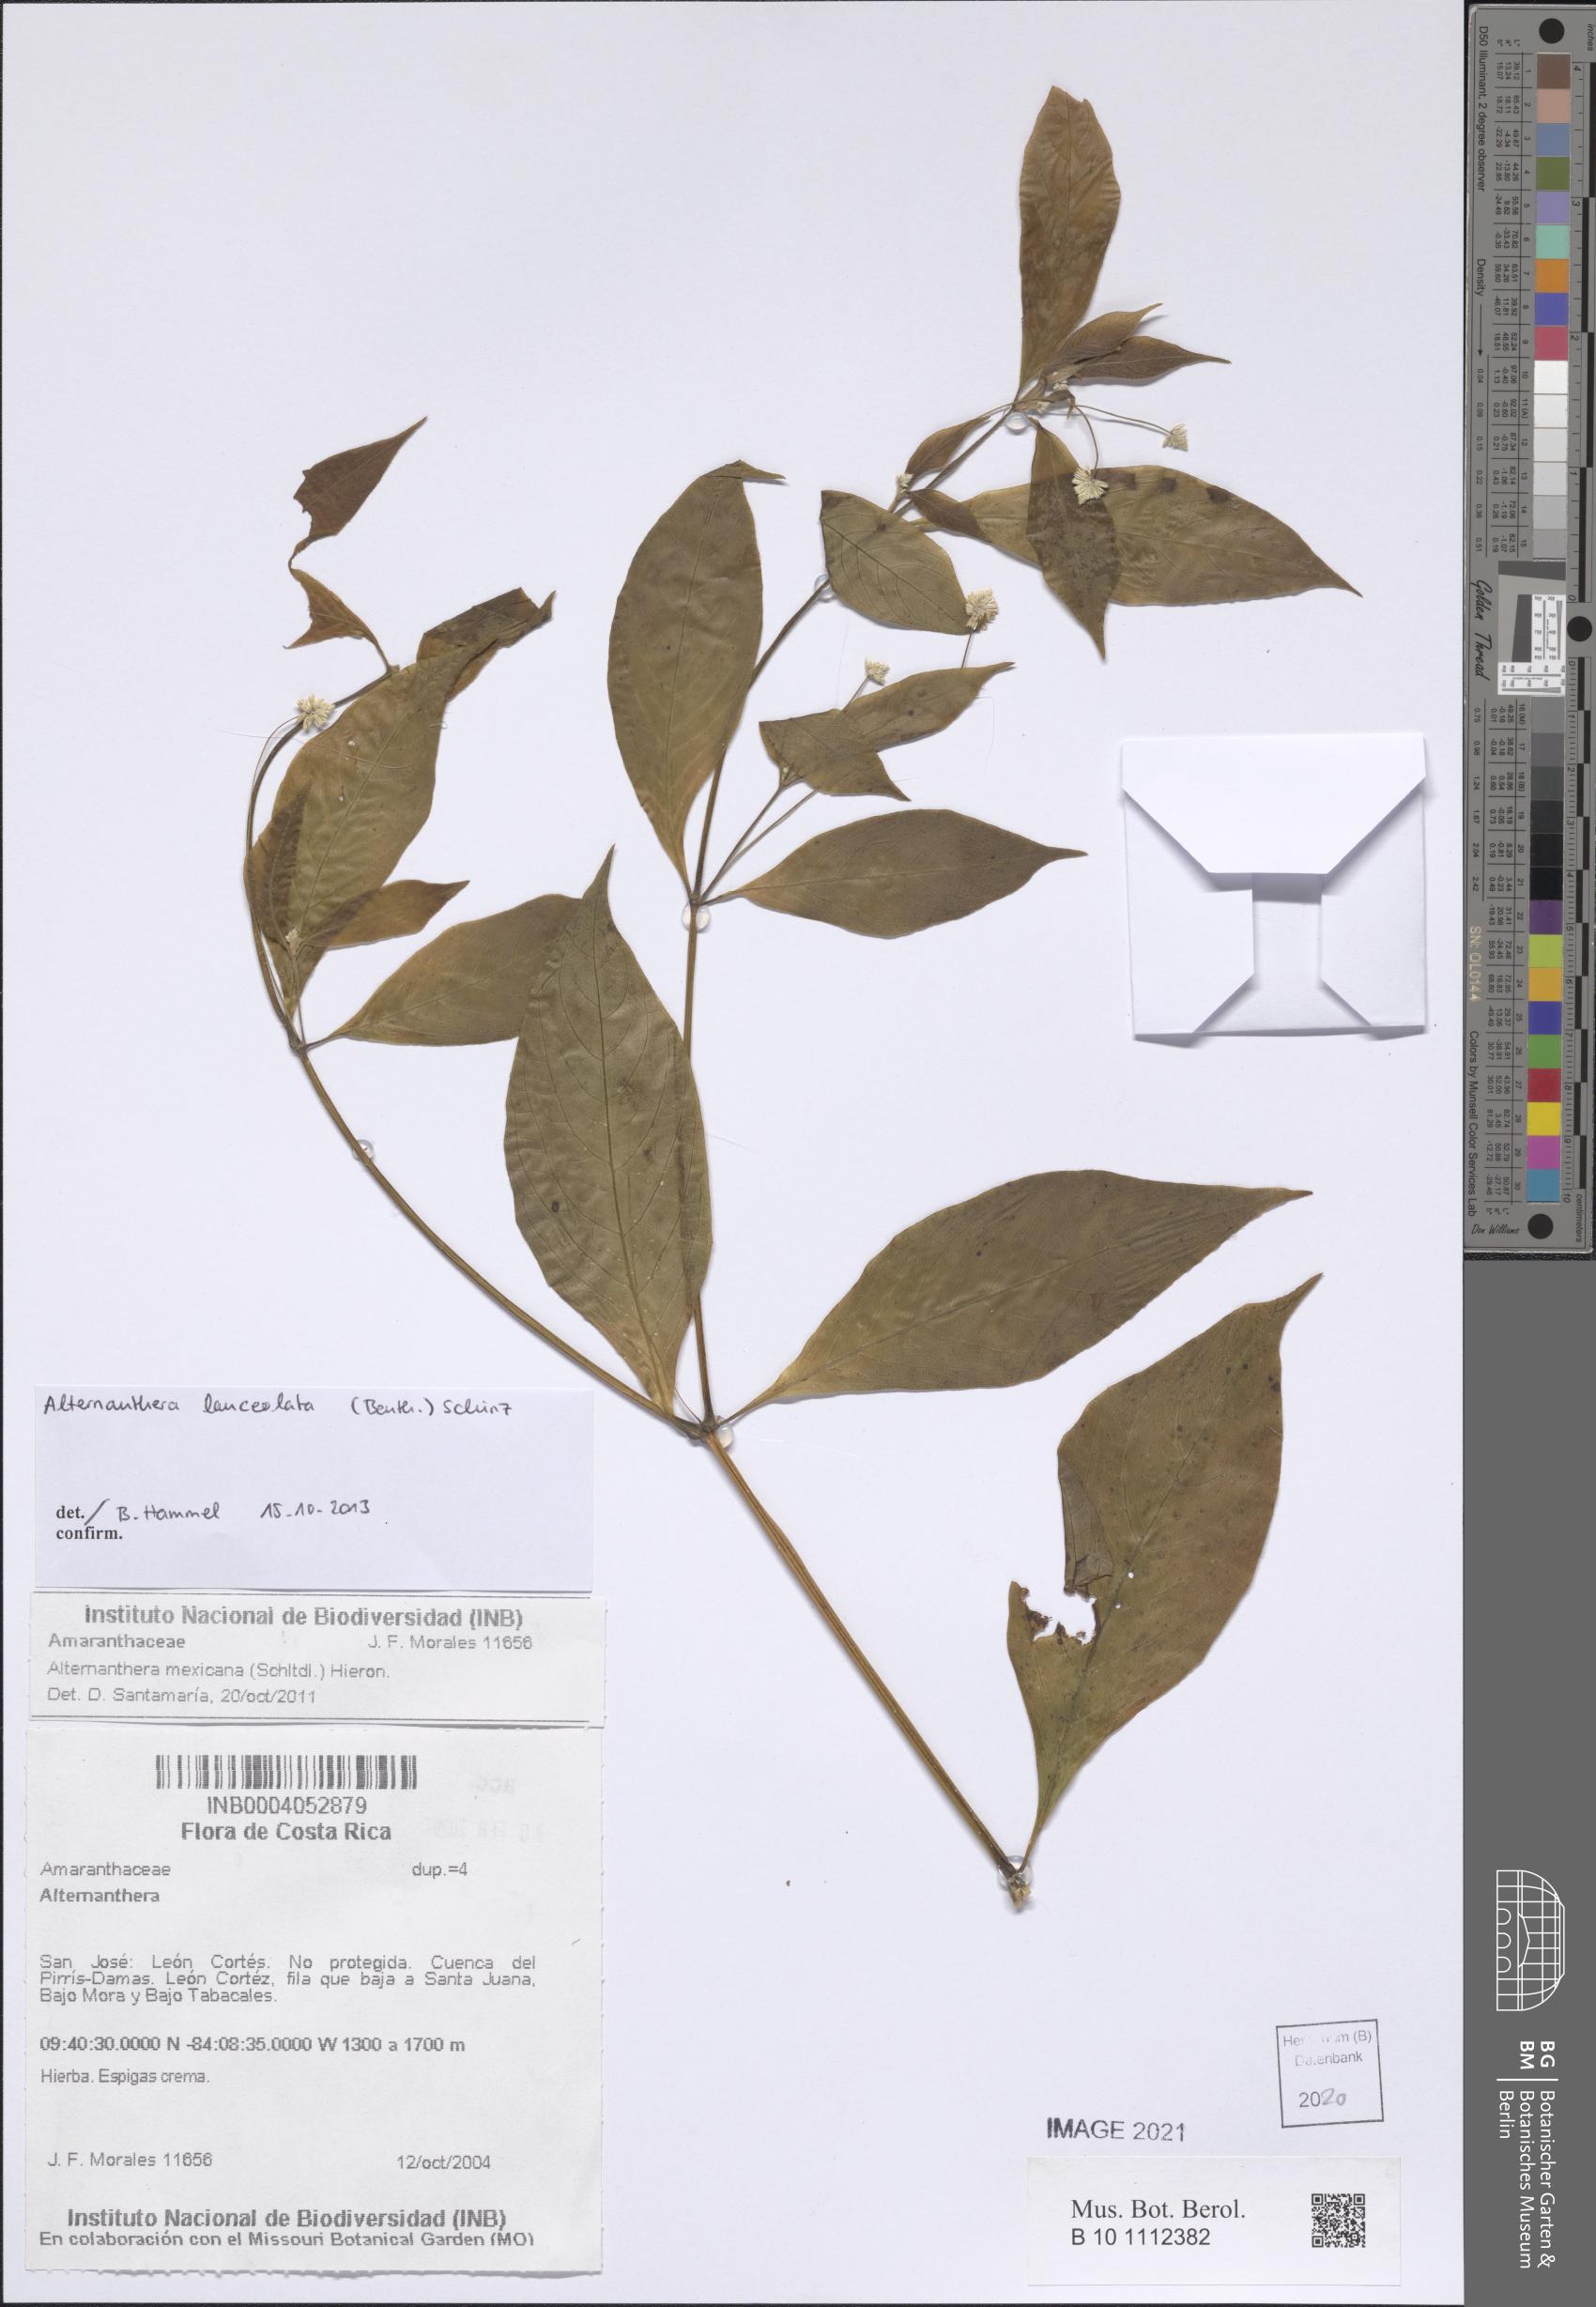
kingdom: Plantae
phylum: Tracheophyta
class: Magnoliopsida
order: Caryophyllales
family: Amaranthaceae
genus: Alternanthera
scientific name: Alternanthera lanceolata
